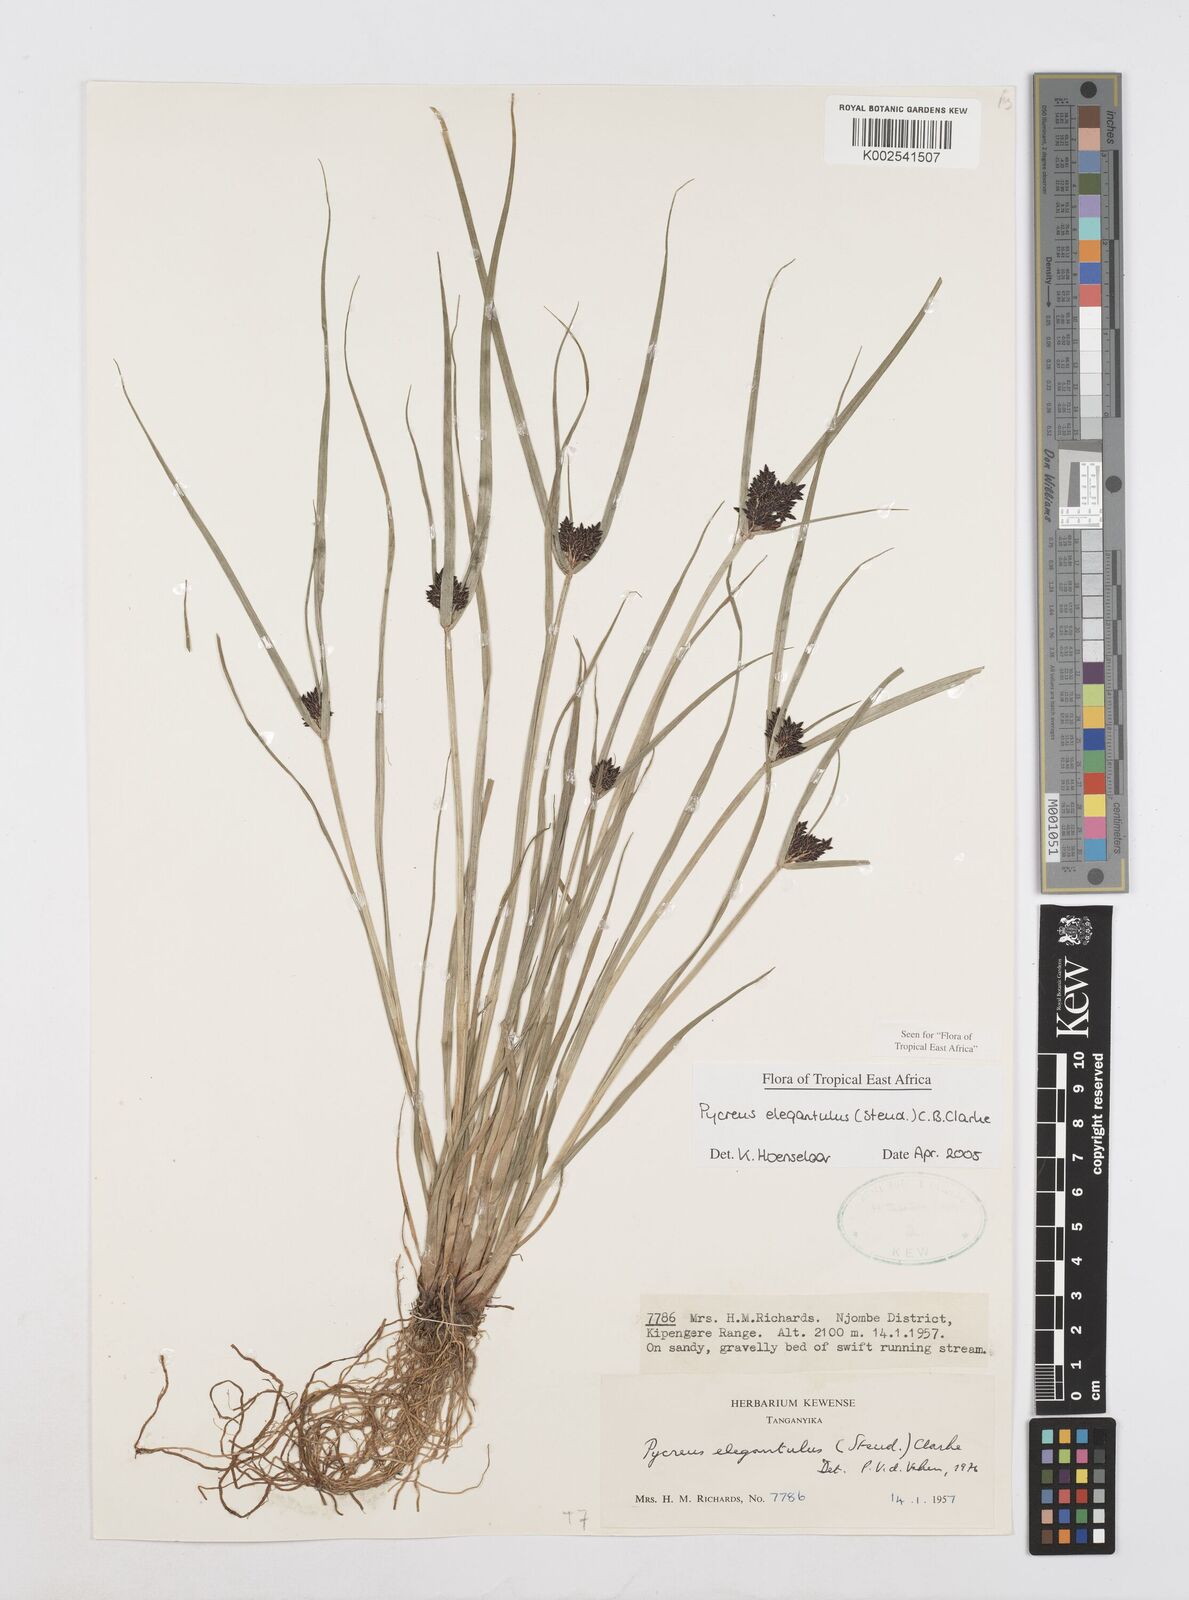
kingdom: Plantae
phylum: Tracheophyta
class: Liliopsida
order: Poales
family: Cyperaceae
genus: Cyperus
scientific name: Cyperus elegantulus
